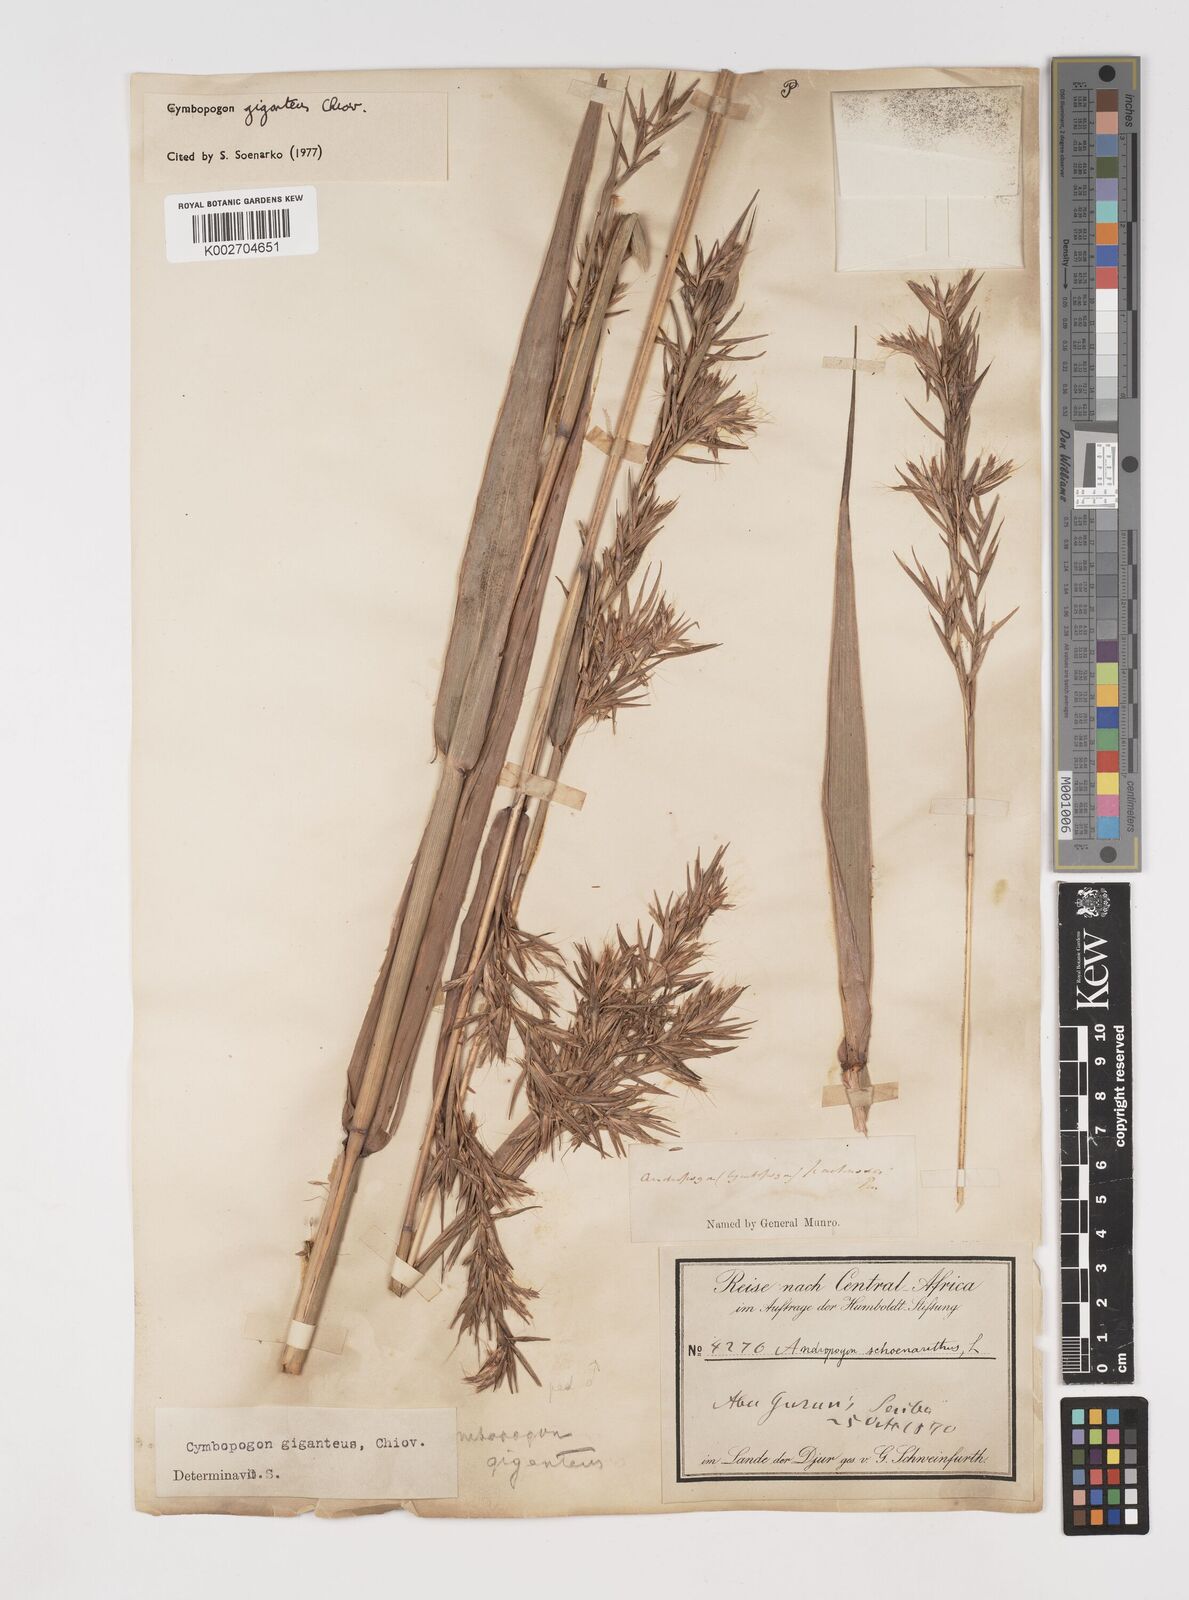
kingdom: Plantae
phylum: Tracheophyta
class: Liliopsida
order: Poales
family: Poaceae
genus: Cymbopogon
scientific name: Cymbopogon giganteus
